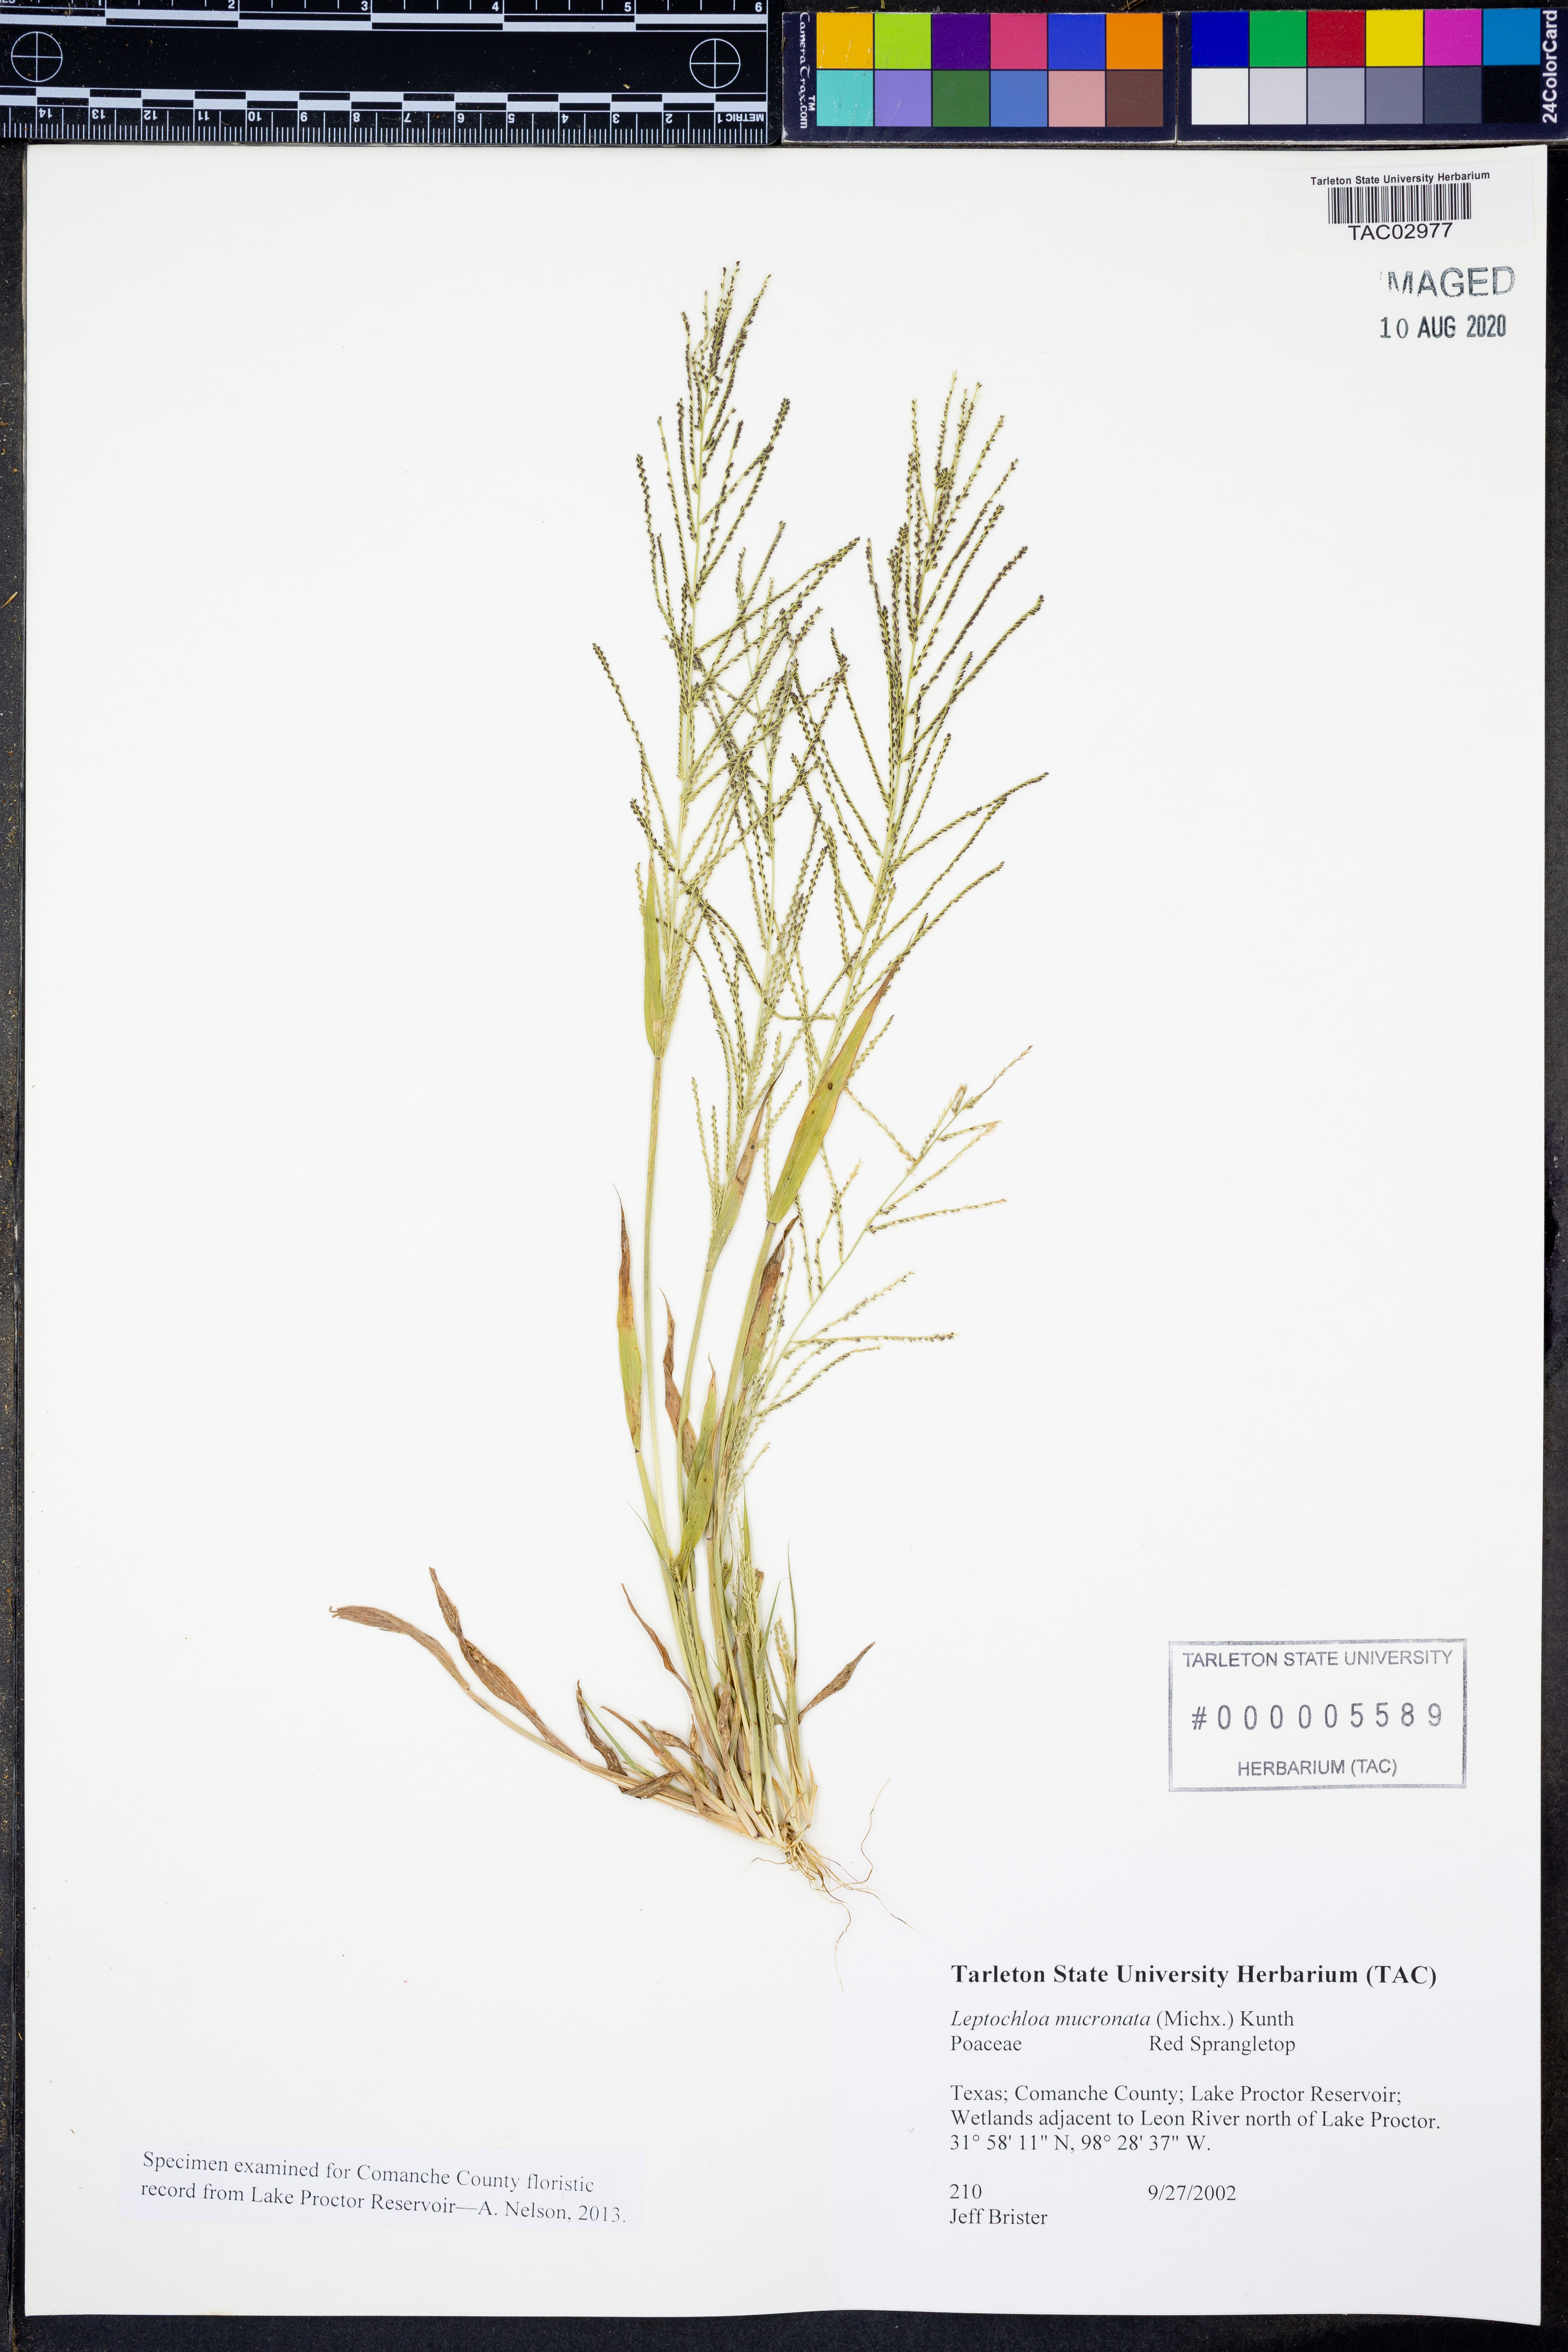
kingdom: Plantae
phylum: Tracheophyta
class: Liliopsida
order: Poales
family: Poaceae
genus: Leptochloa
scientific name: Leptochloa mucronata
